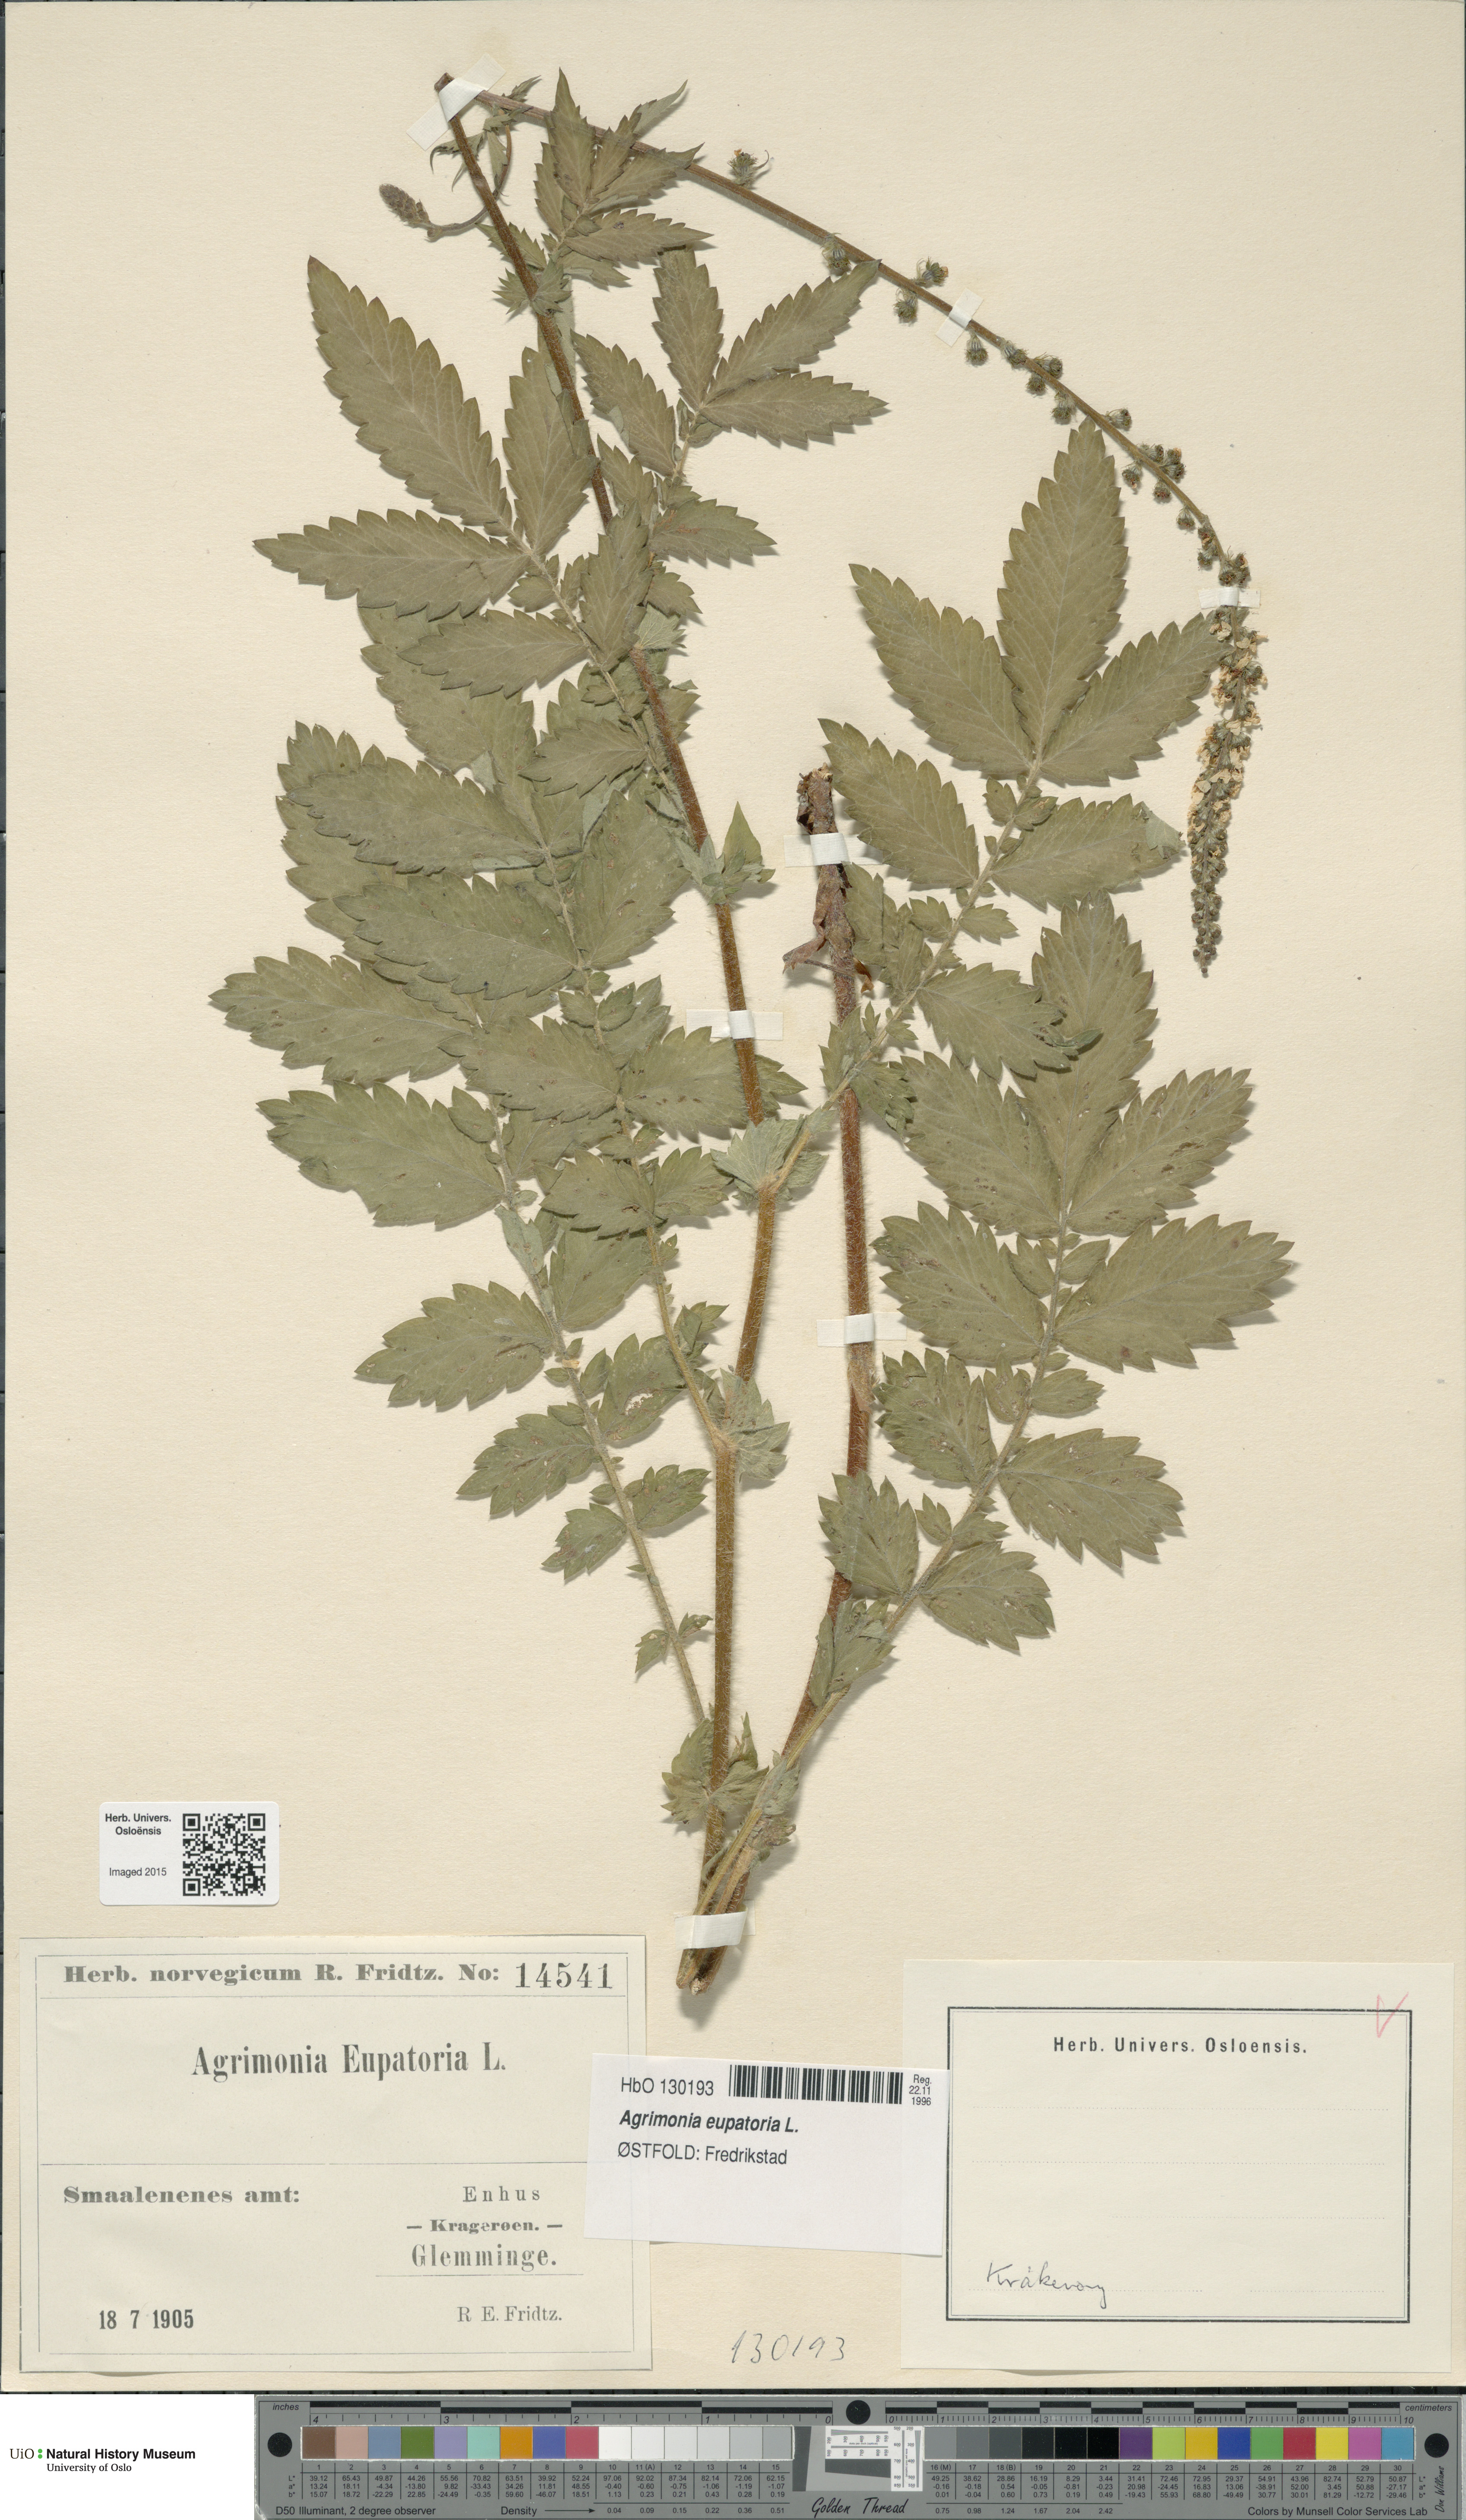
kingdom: Plantae
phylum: Tracheophyta
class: Magnoliopsida
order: Rosales
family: Rosaceae
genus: Agrimonia
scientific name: Agrimonia eupatoria
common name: Agrimony
